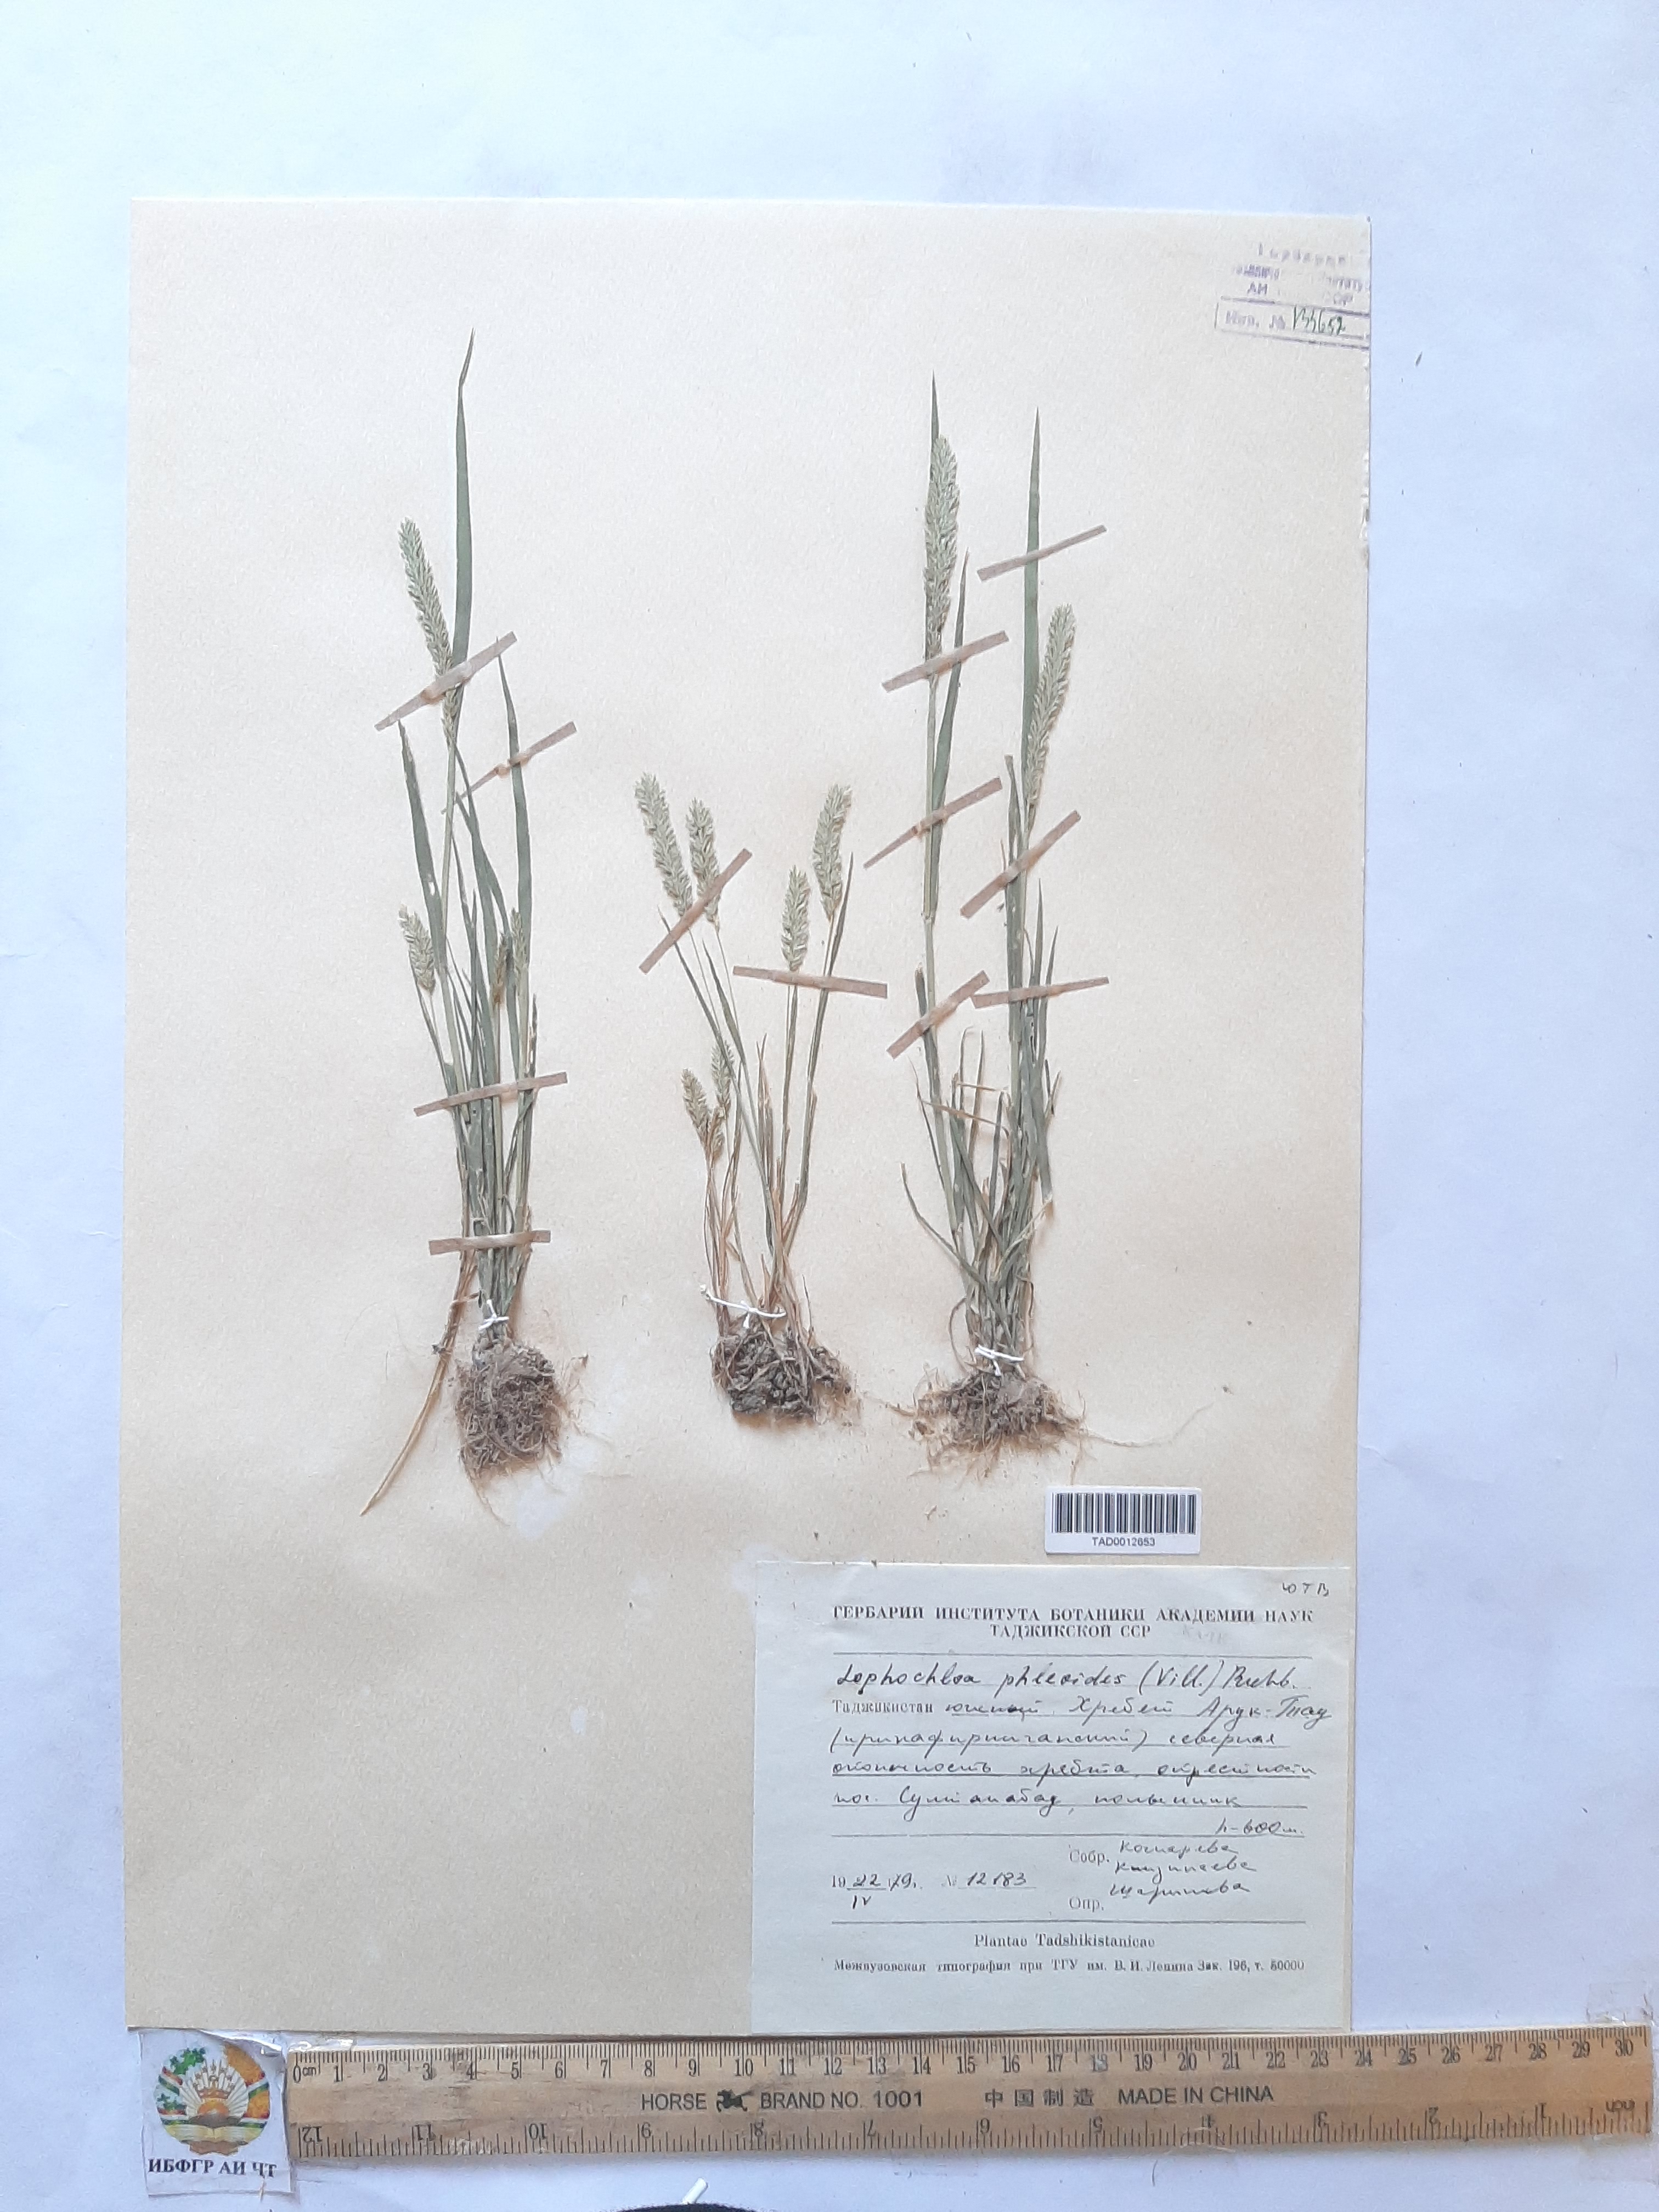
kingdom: Plantae
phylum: Tracheophyta
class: Liliopsida
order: Poales
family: Poaceae
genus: Rostraria
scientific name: Rostraria cristata
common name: Mediterranean hair-grass
